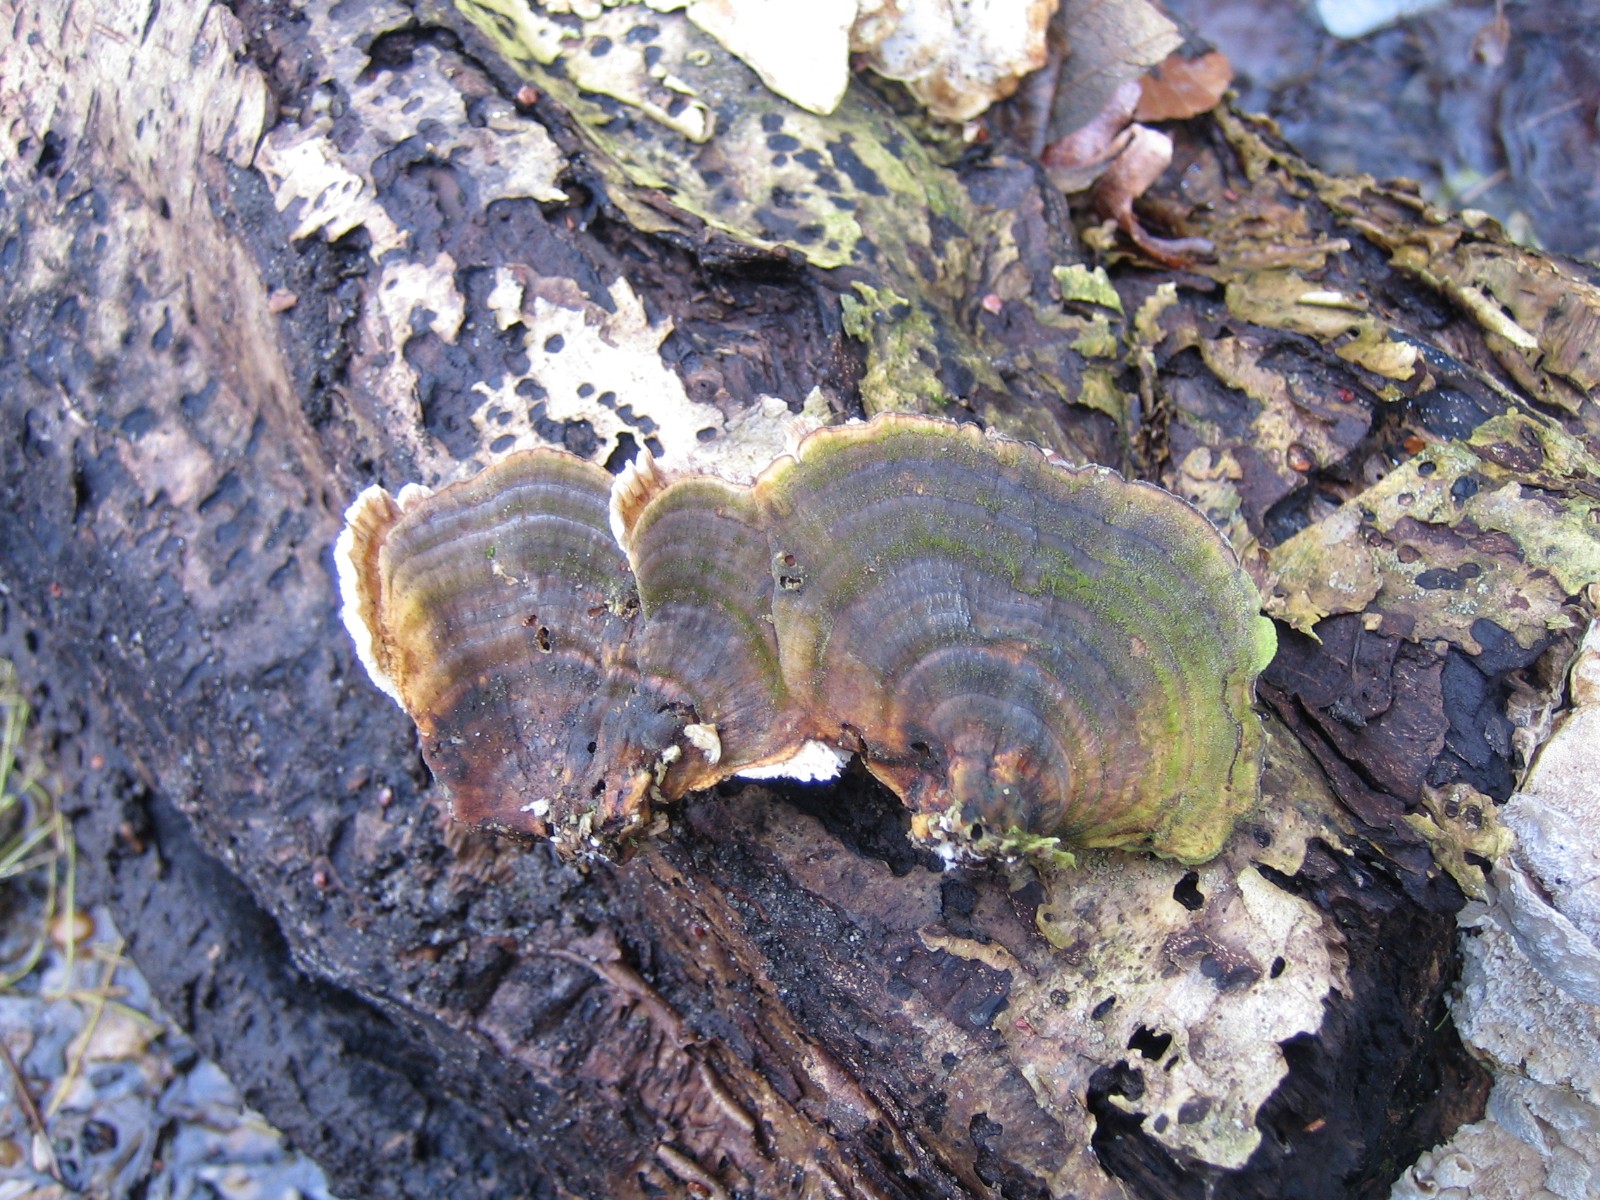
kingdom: Fungi
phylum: Basidiomycota
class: Agaricomycetes
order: Polyporales
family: Polyporaceae
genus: Trametes
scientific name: Trametes versicolor
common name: broget læderporesvamp
